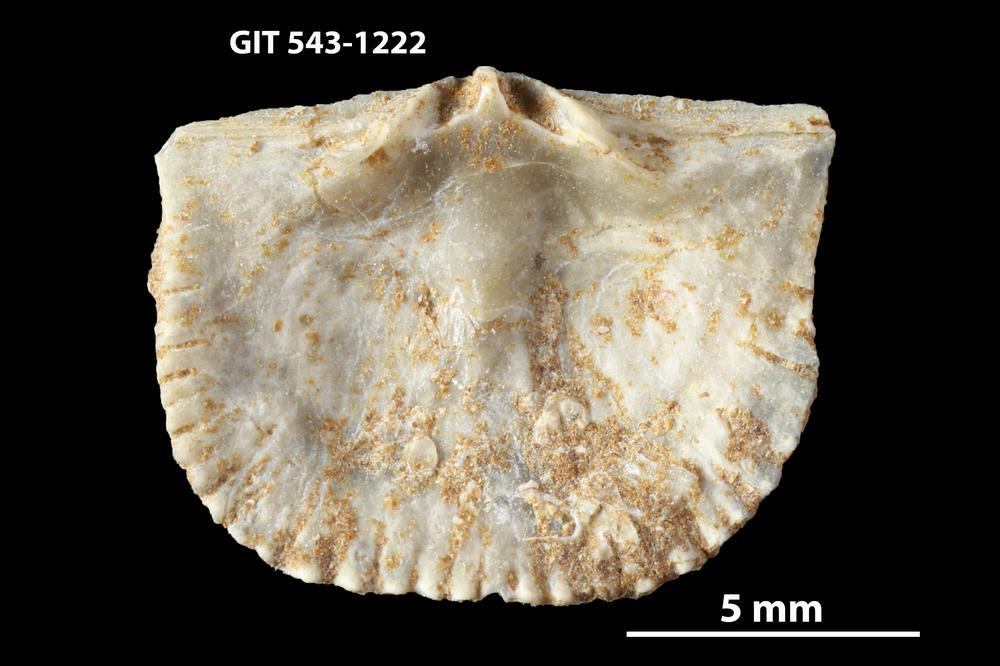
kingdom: Animalia
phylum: Brachiopoda
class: Rhynchonellata
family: Clitambonitidae
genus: Clitambonites
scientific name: Clitambonites
